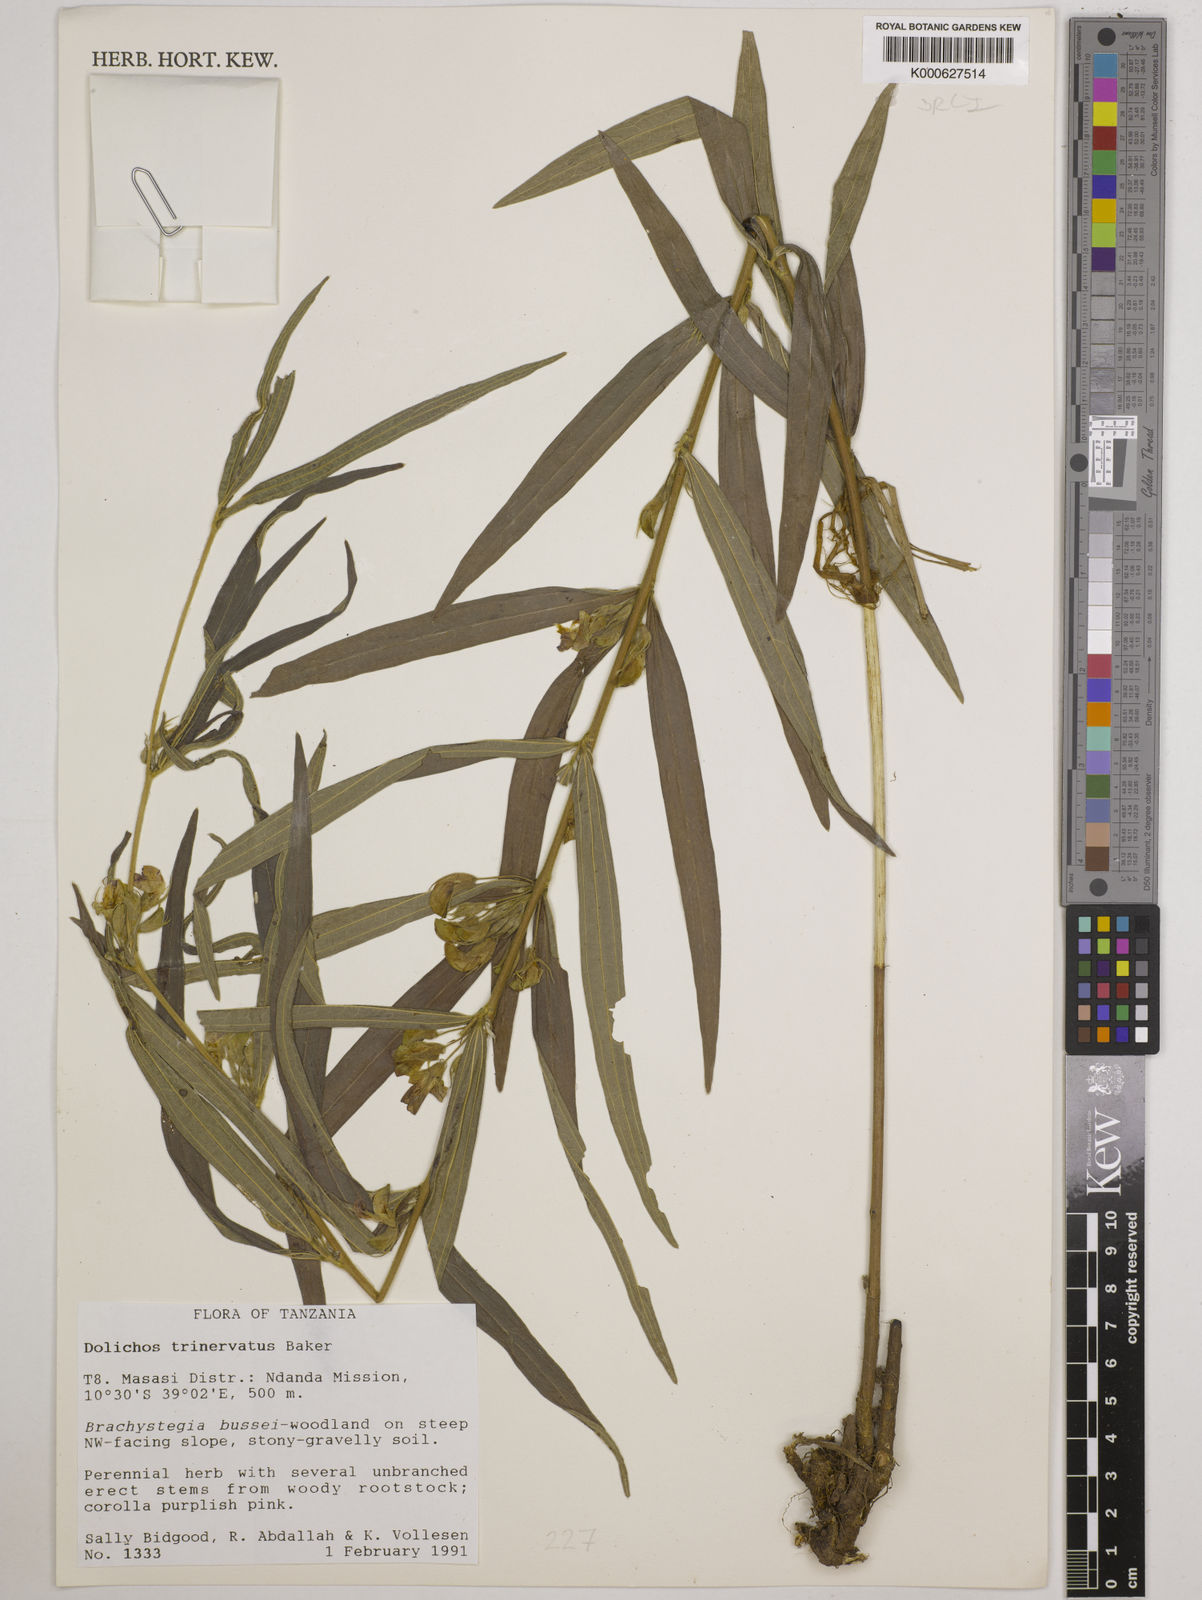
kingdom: Plantae
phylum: Tracheophyta
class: Magnoliopsida
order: Fabales
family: Fabaceae
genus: Dolichos
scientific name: Dolichos trinervatus
